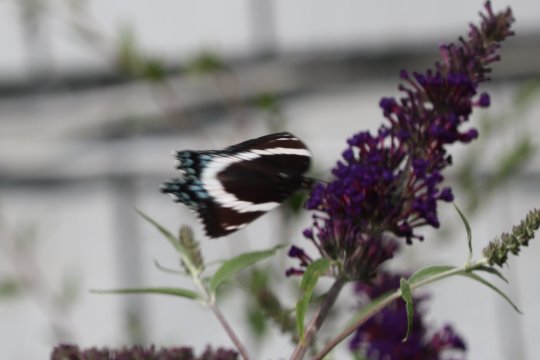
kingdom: Animalia
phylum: Arthropoda
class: Insecta
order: Lepidoptera
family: Nymphalidae
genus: Limenitis
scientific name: Limenitis arthemis
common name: Red-spotted Admiral
